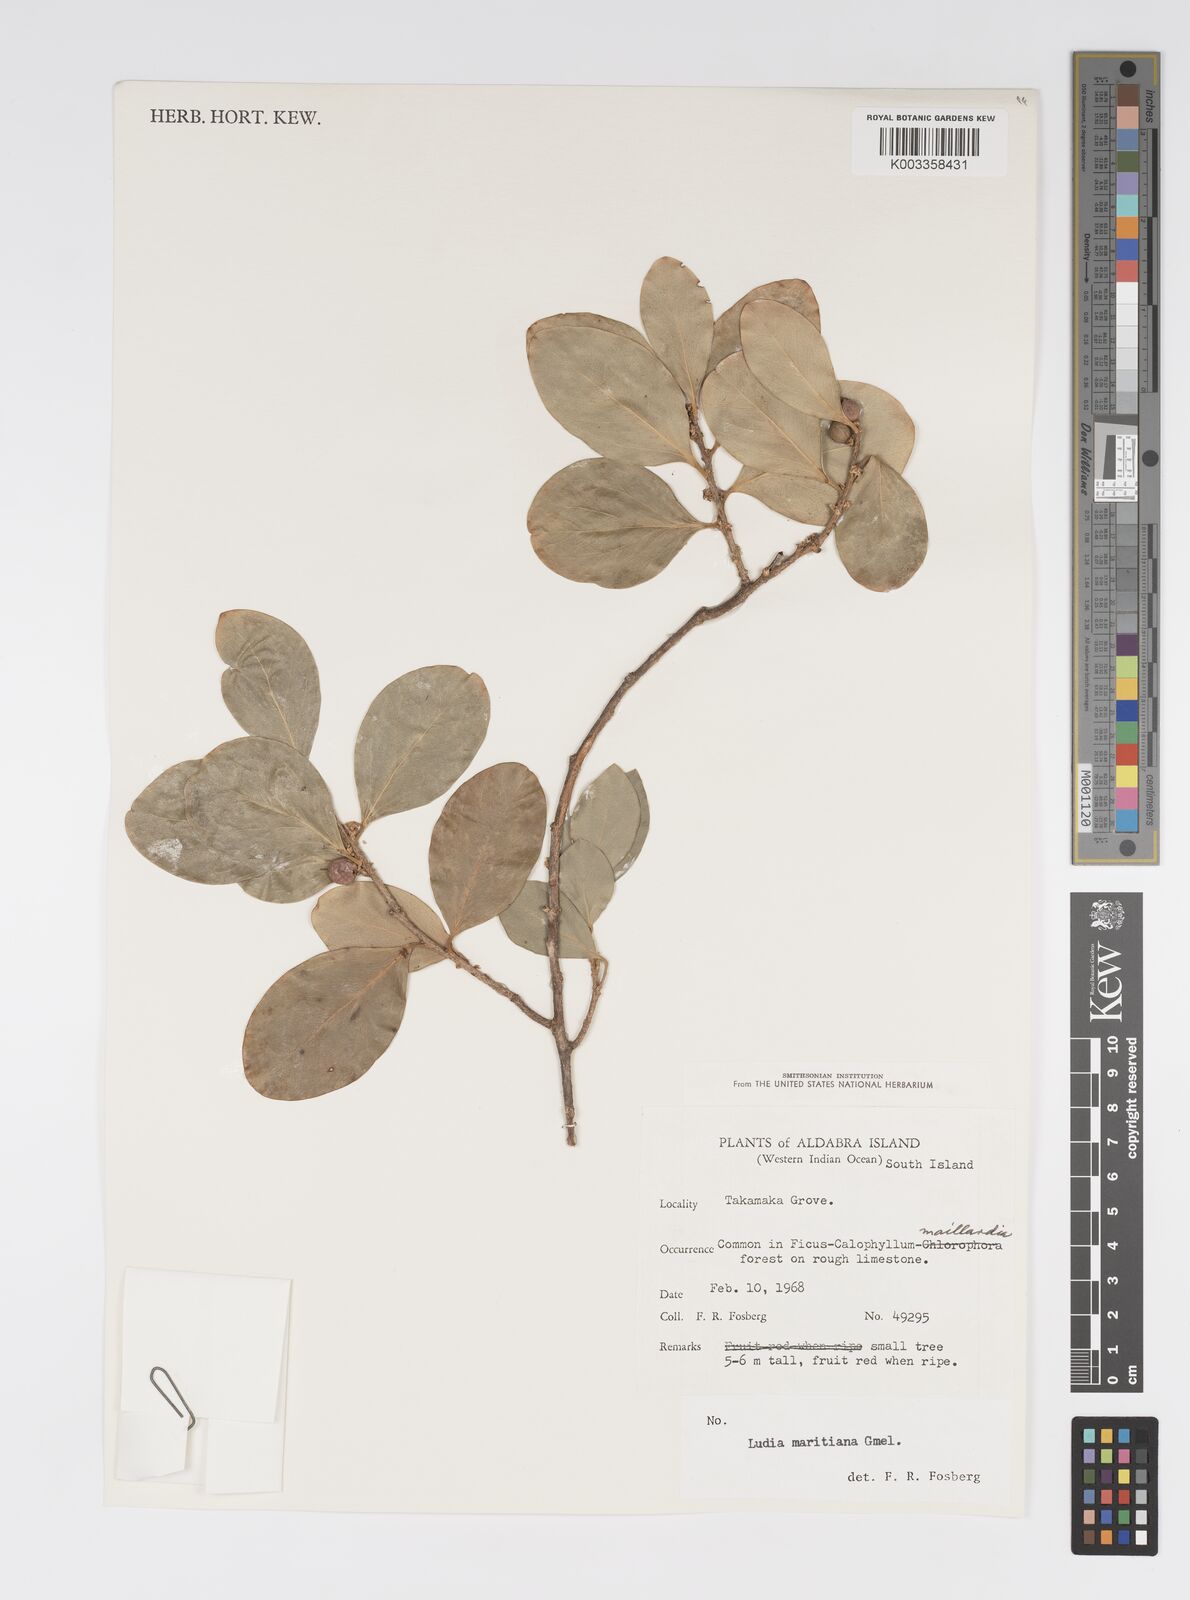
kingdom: Plantae
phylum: Tracheophyta
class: Magnoliopsida
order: Malpighiales
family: Salicaceae
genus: Ludia
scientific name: Ludia mauritiana
